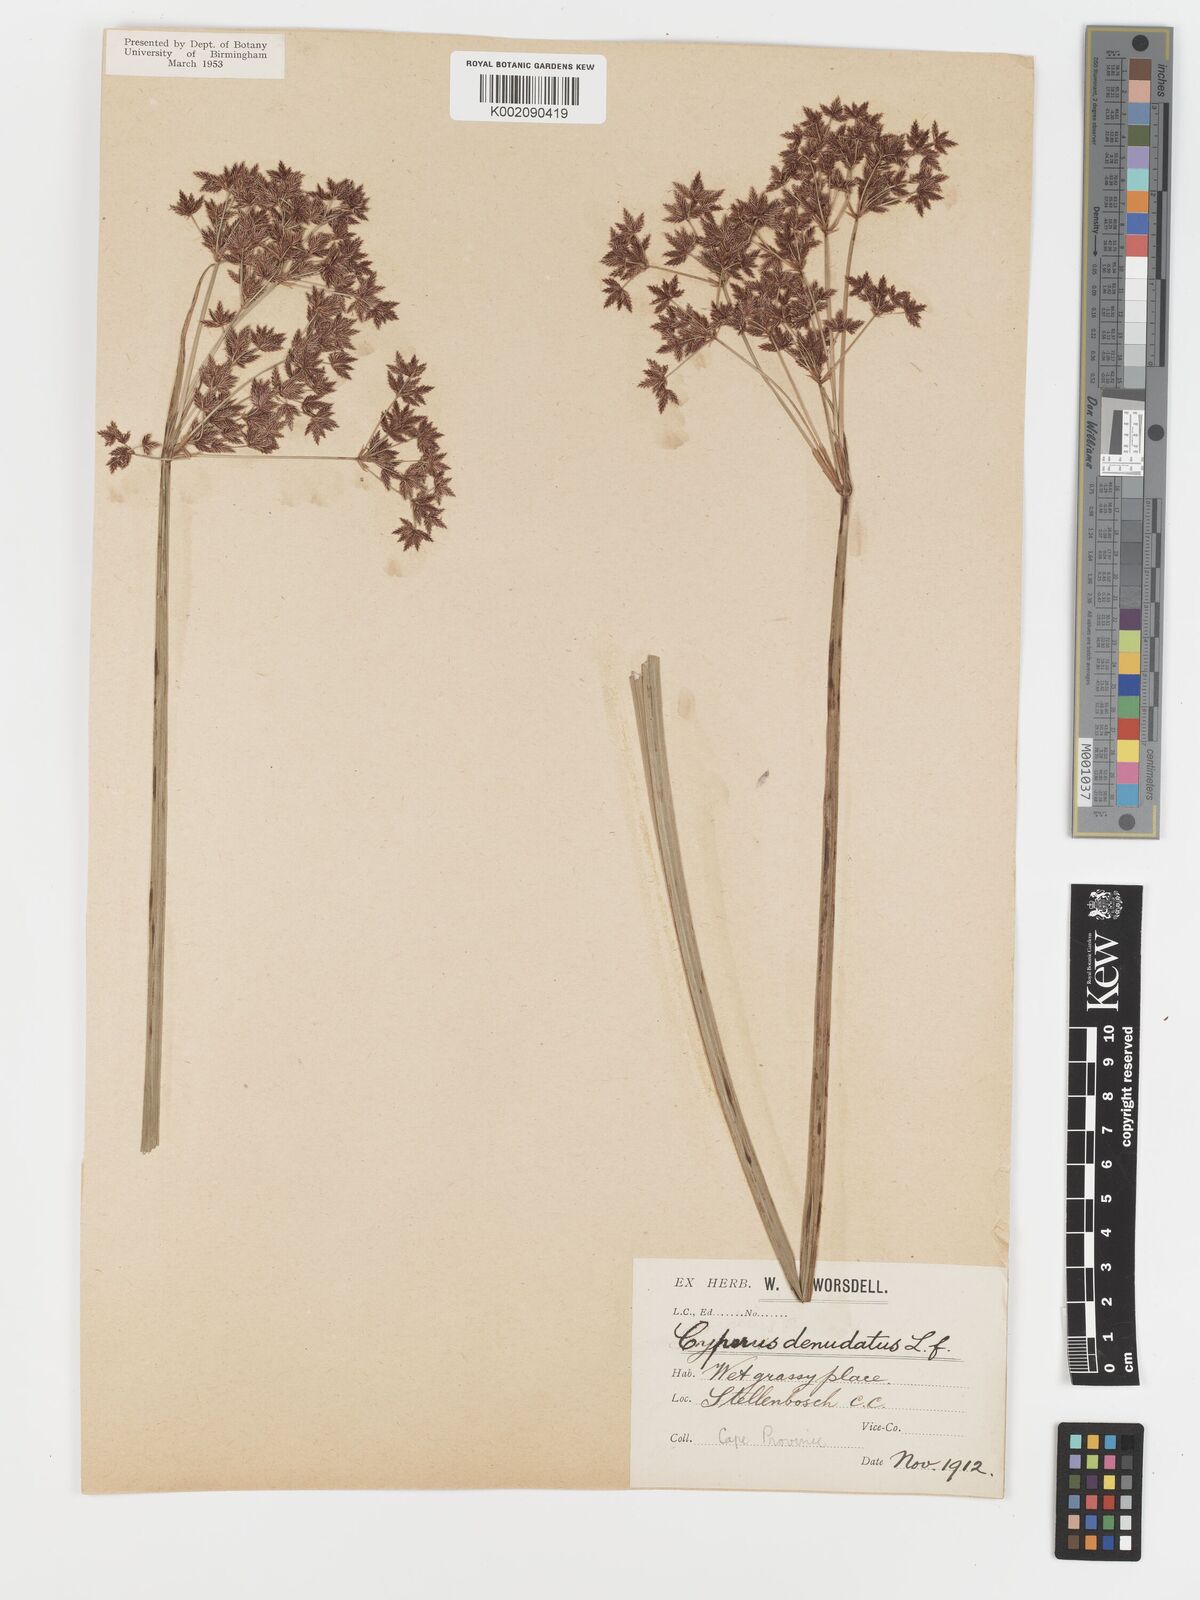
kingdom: Plantae
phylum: Tracheophyta
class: Liliopsida
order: Poales
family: Cyperaceae
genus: Cyperus
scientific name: Cyperus denudatus
